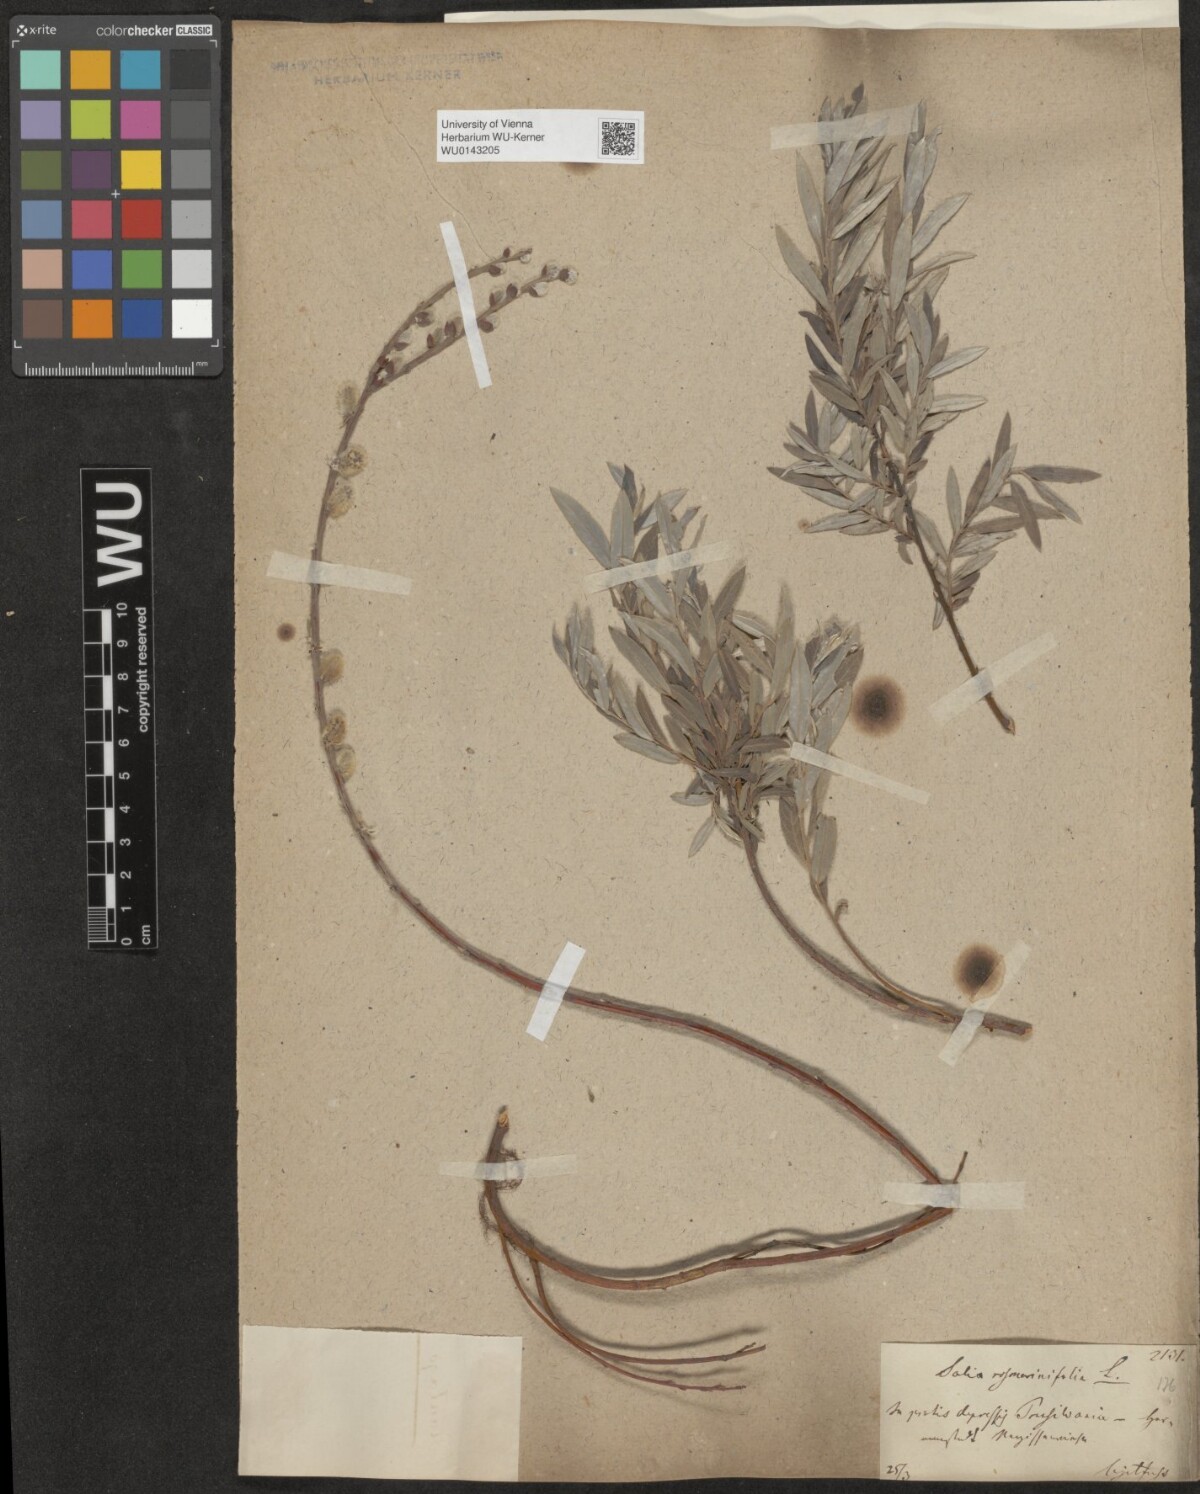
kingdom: Plantae
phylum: Tracheophyta
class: Magnoliopsida
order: Malpighiales
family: Salicaceae
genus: Salix
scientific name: Salix repens
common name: Creeping willow
